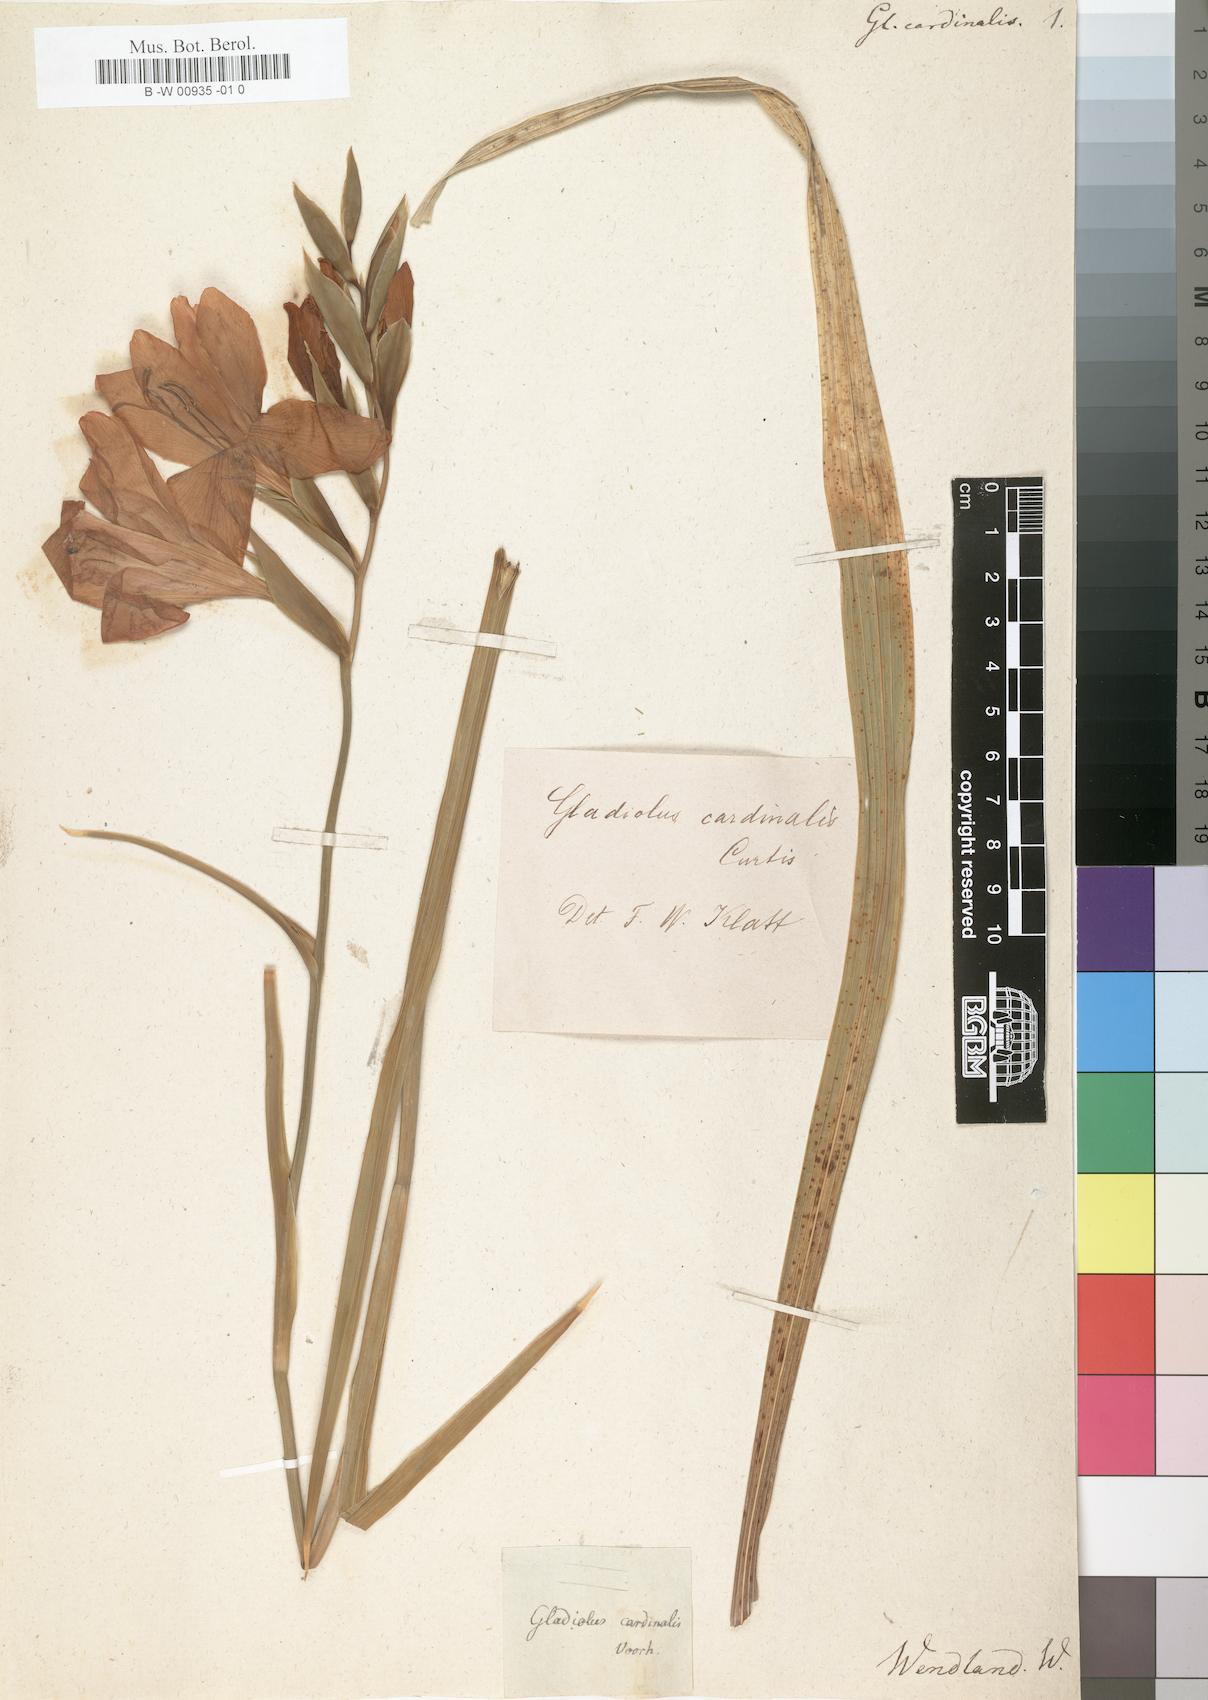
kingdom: Plantae
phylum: Tracheophyta
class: Liliopsida
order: Asparagales
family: Iridaceae
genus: Gladiolus
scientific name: Gladiolus cardinalis
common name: New year-lily
